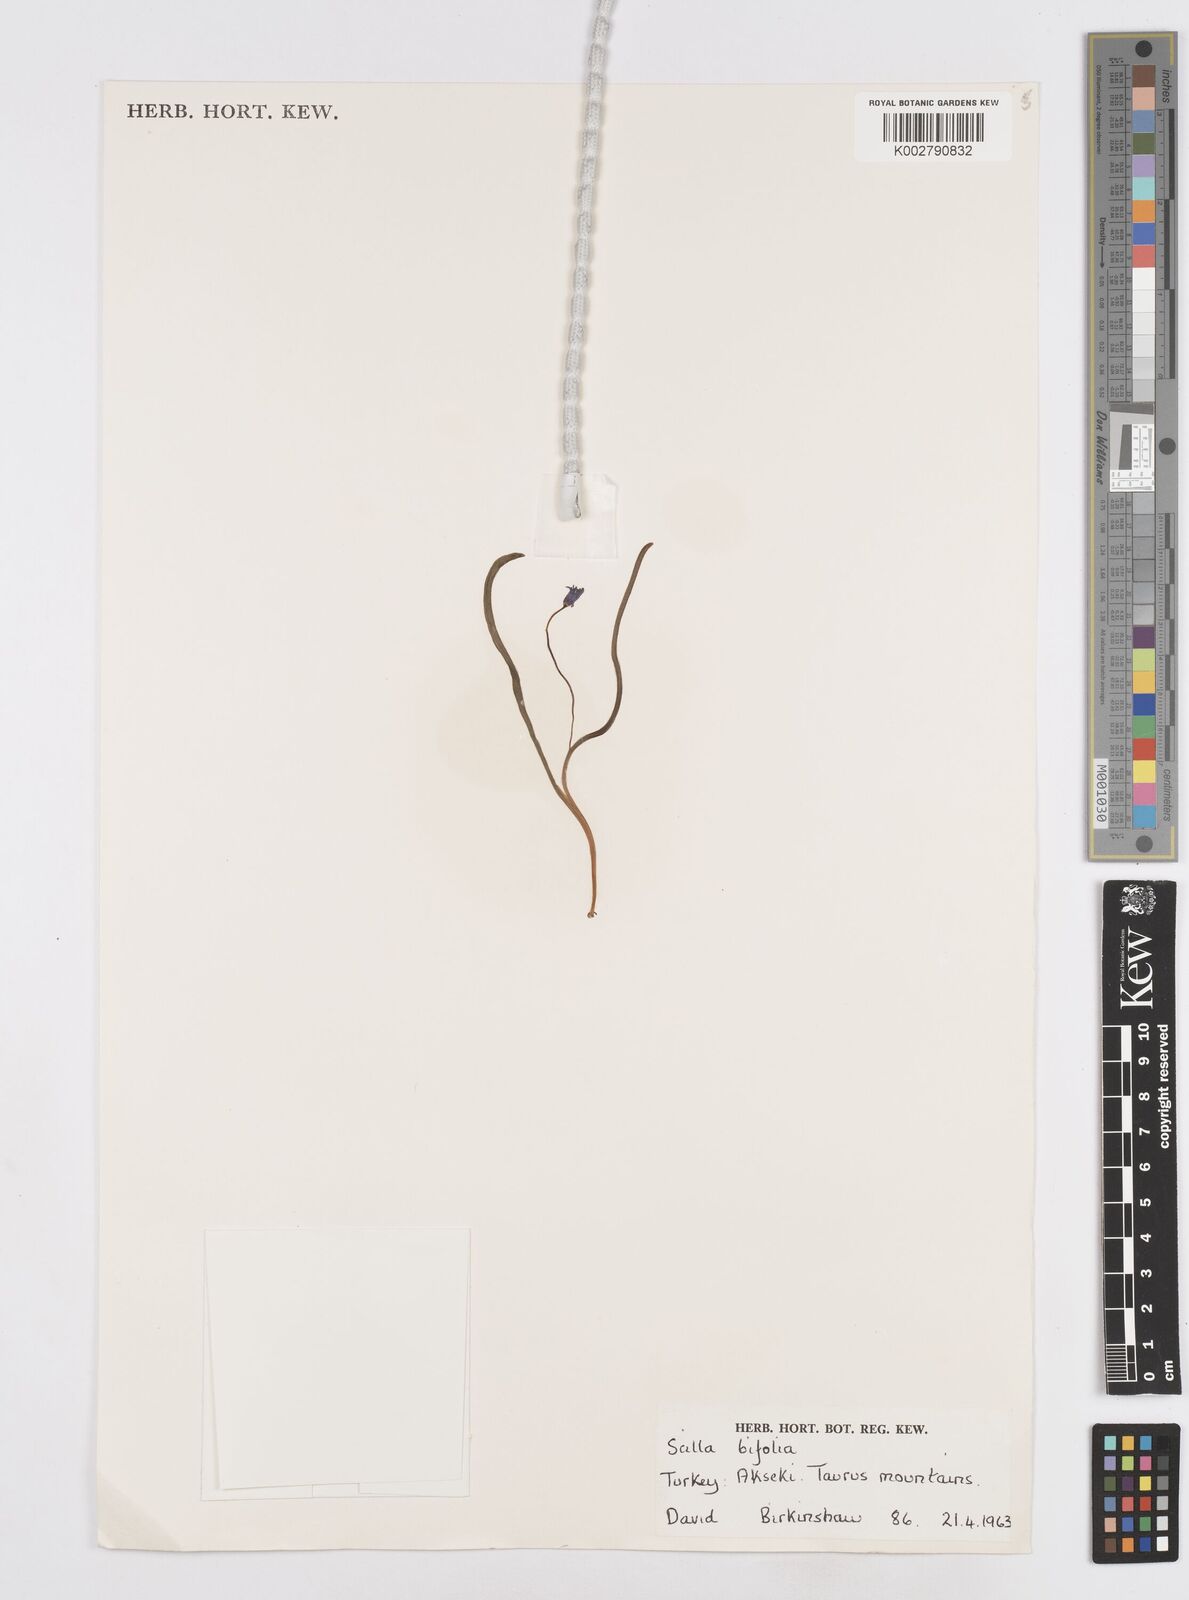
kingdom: Plantae
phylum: Tracheophyta
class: Liliopsida
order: Asparagales
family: Asparagaceae
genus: Scilla
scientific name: Scilla bifolia
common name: Alpine squill
